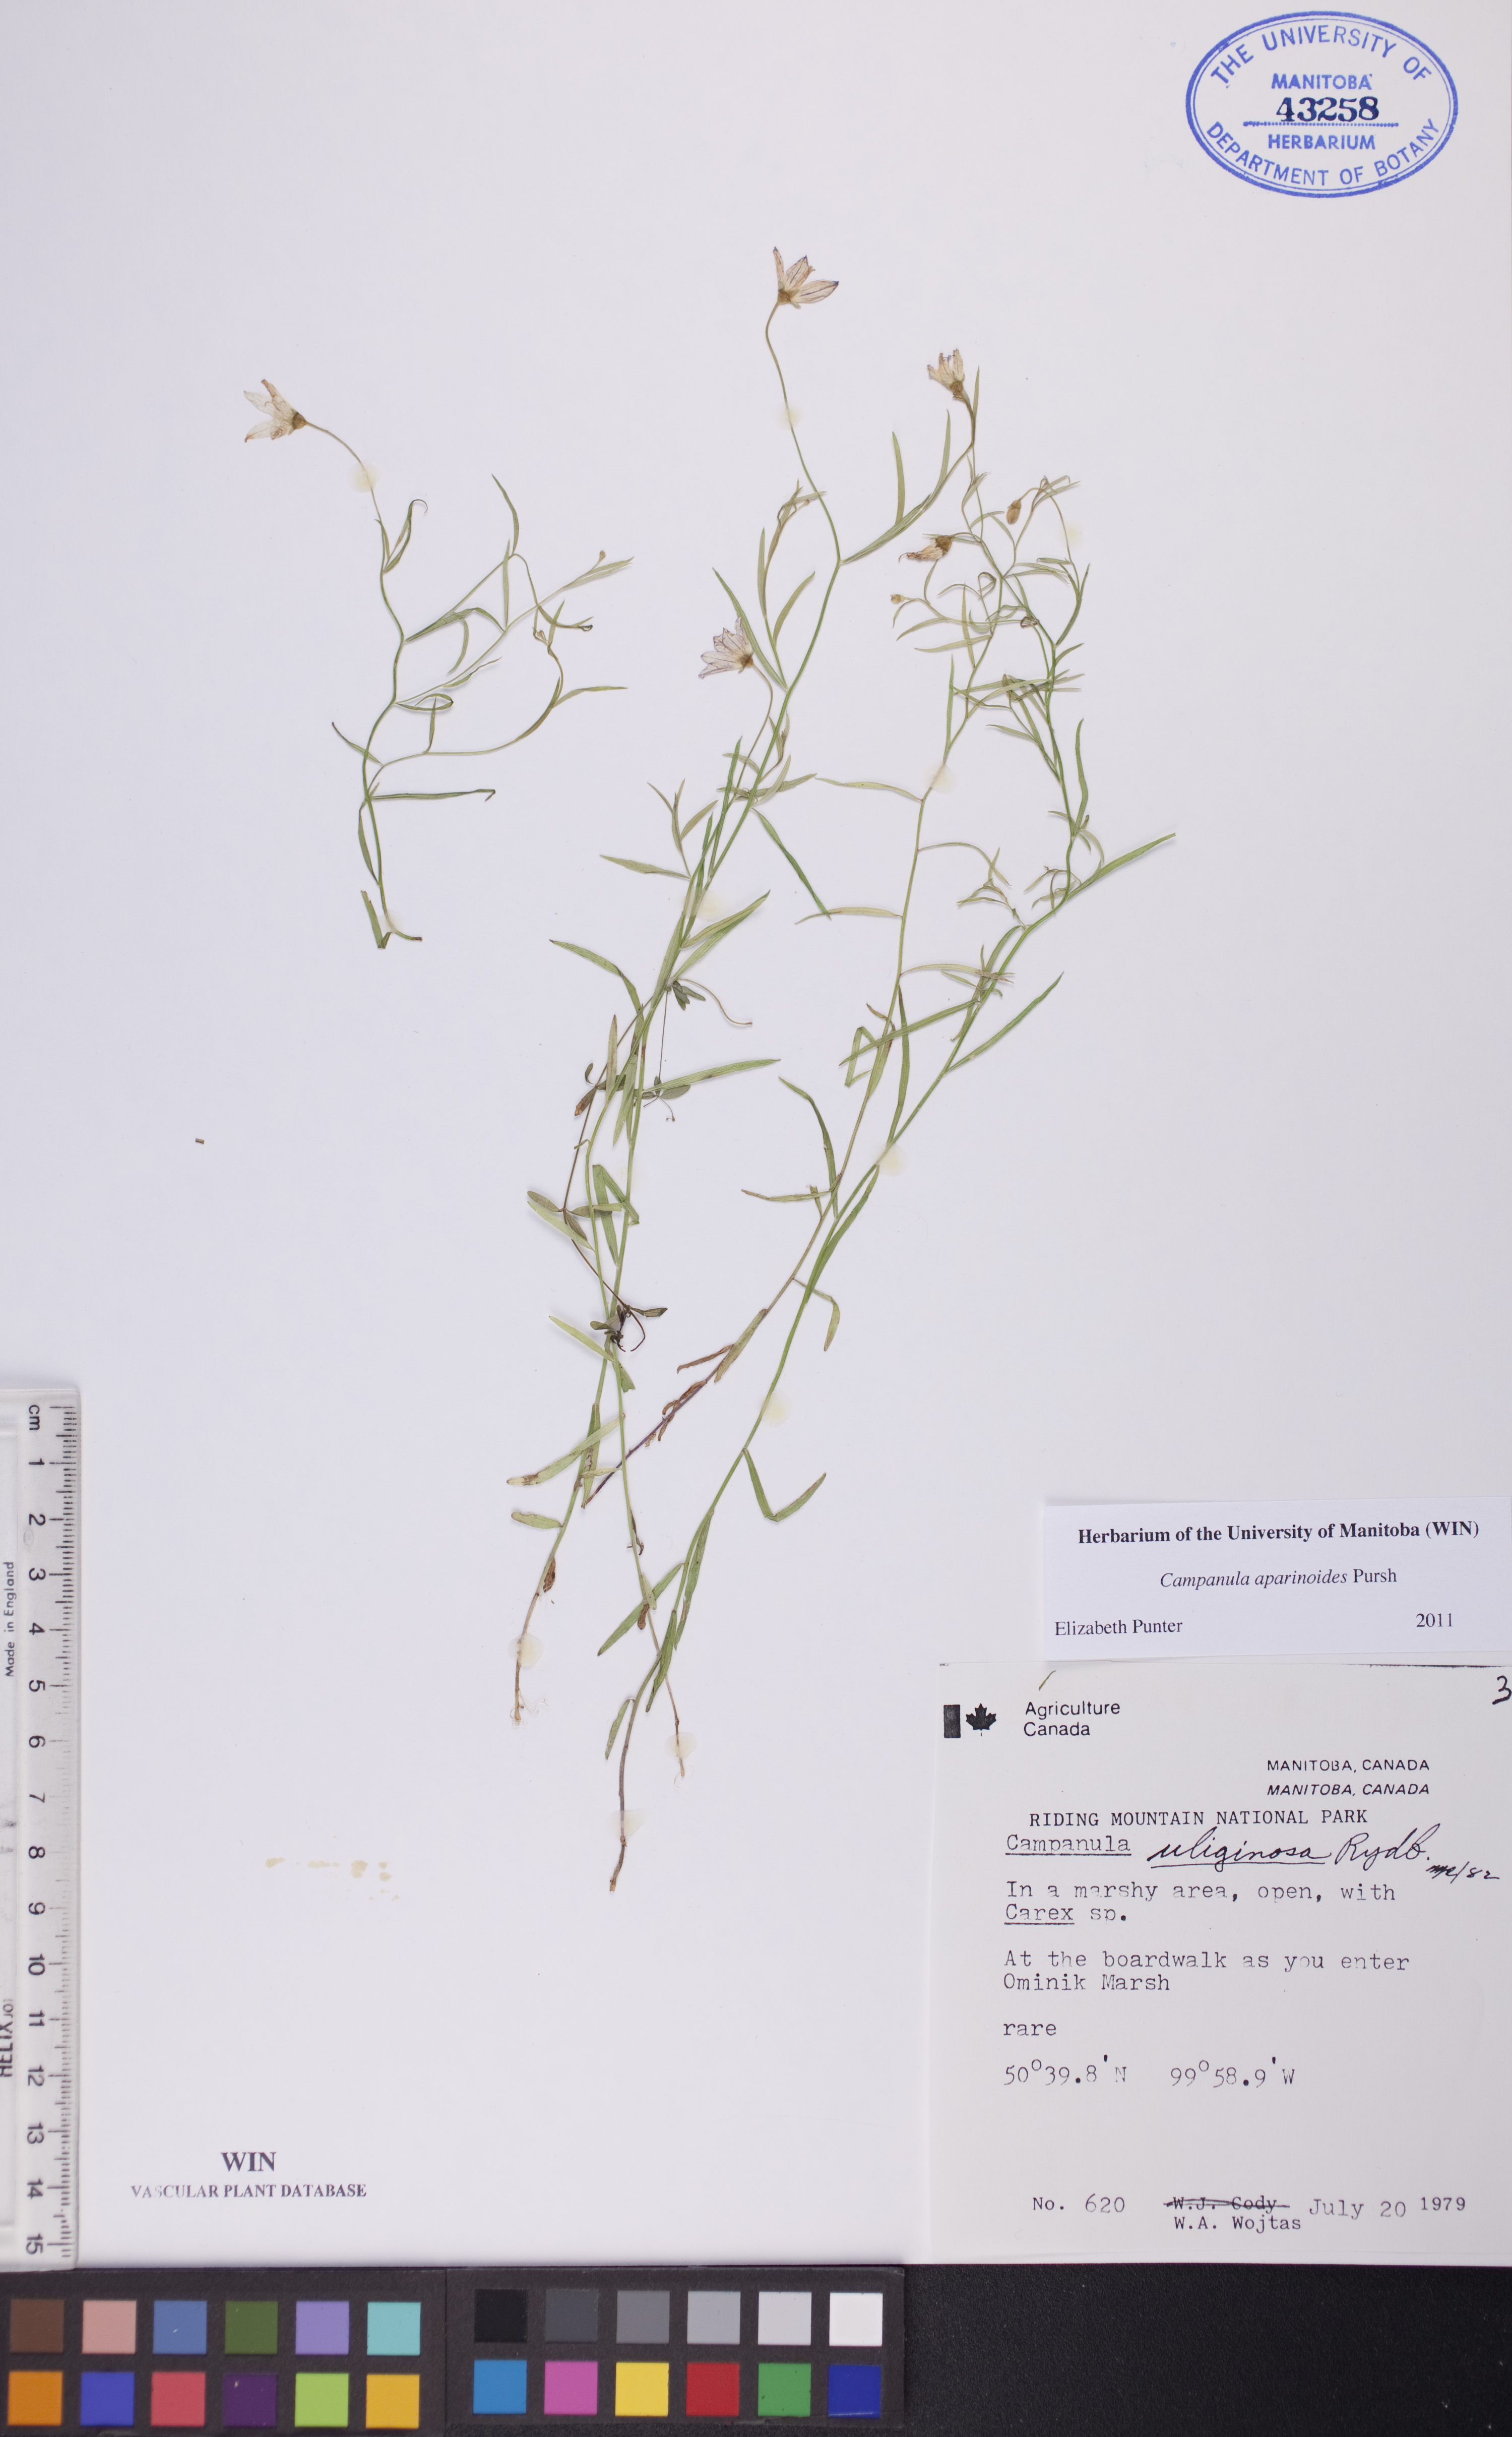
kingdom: Plantae
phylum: Tracheophyta
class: Magnoliopsida
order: Asterales
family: Campanulaceae
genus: Palustricodon
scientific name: Palustricodon aparinoides
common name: Bedstraw bellflower
